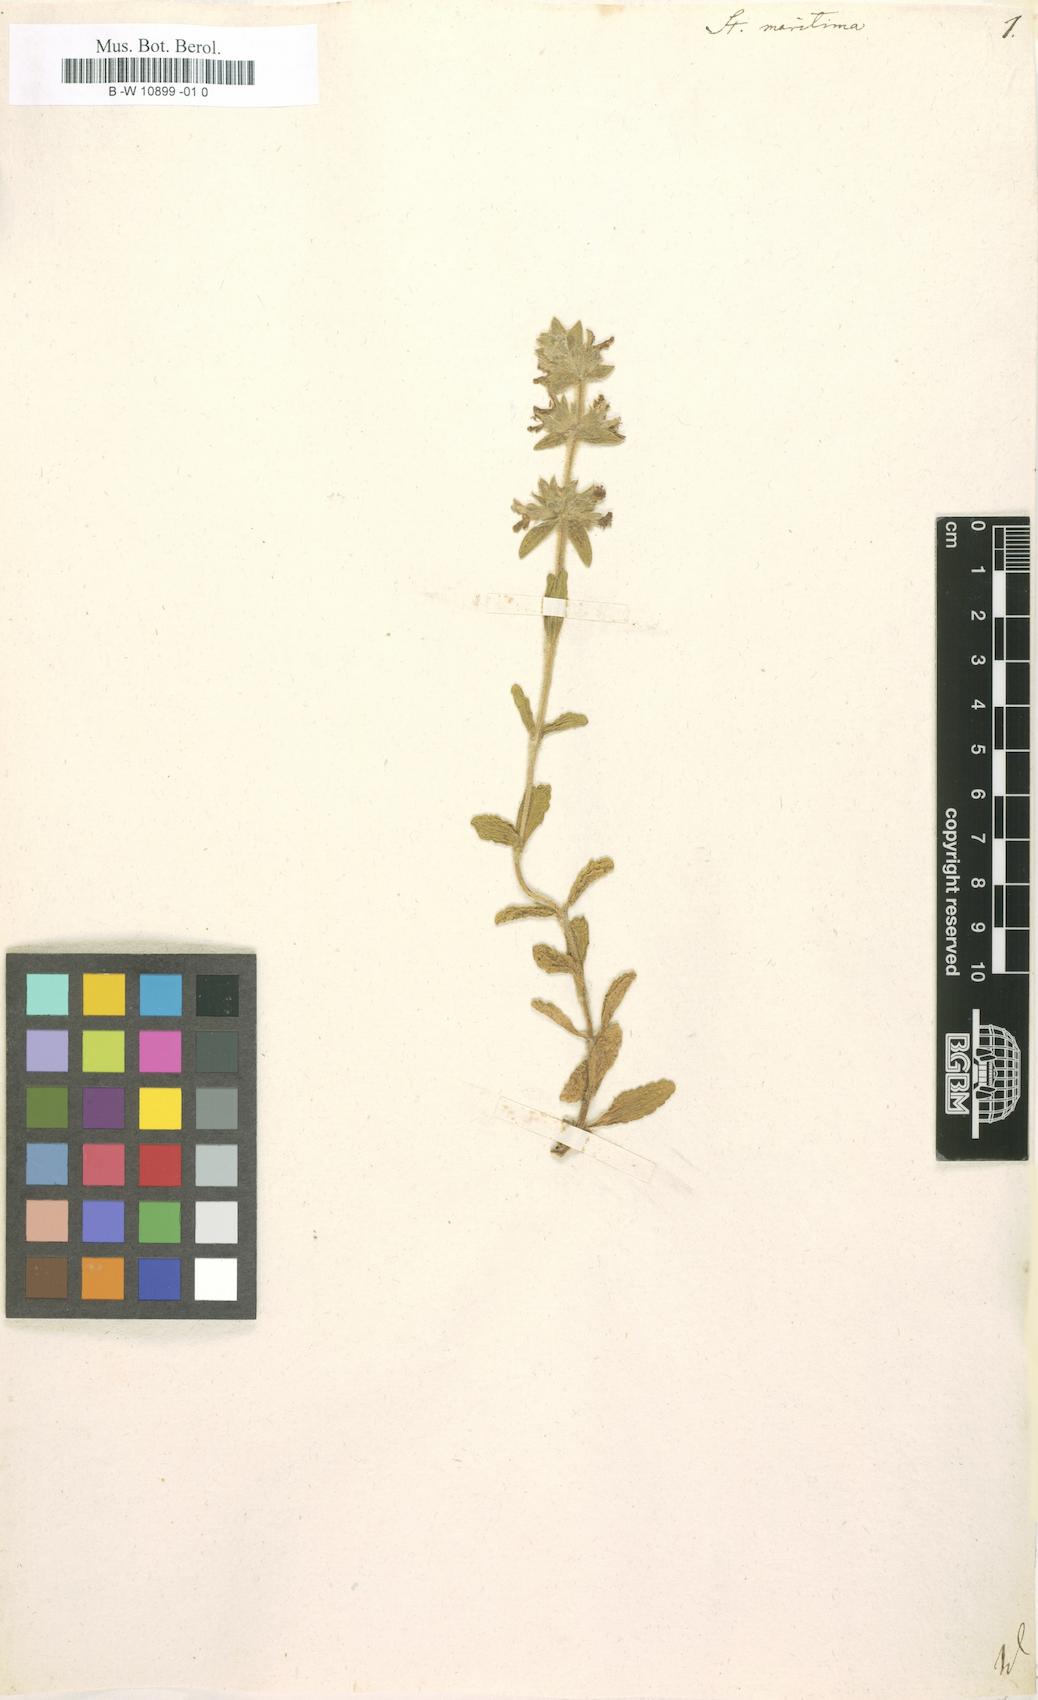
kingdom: Plantae
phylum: Tracheophyta
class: Magnoliopsida
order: Lamiales
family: Lamiaceae
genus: Stachys
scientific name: Stachys maritima
